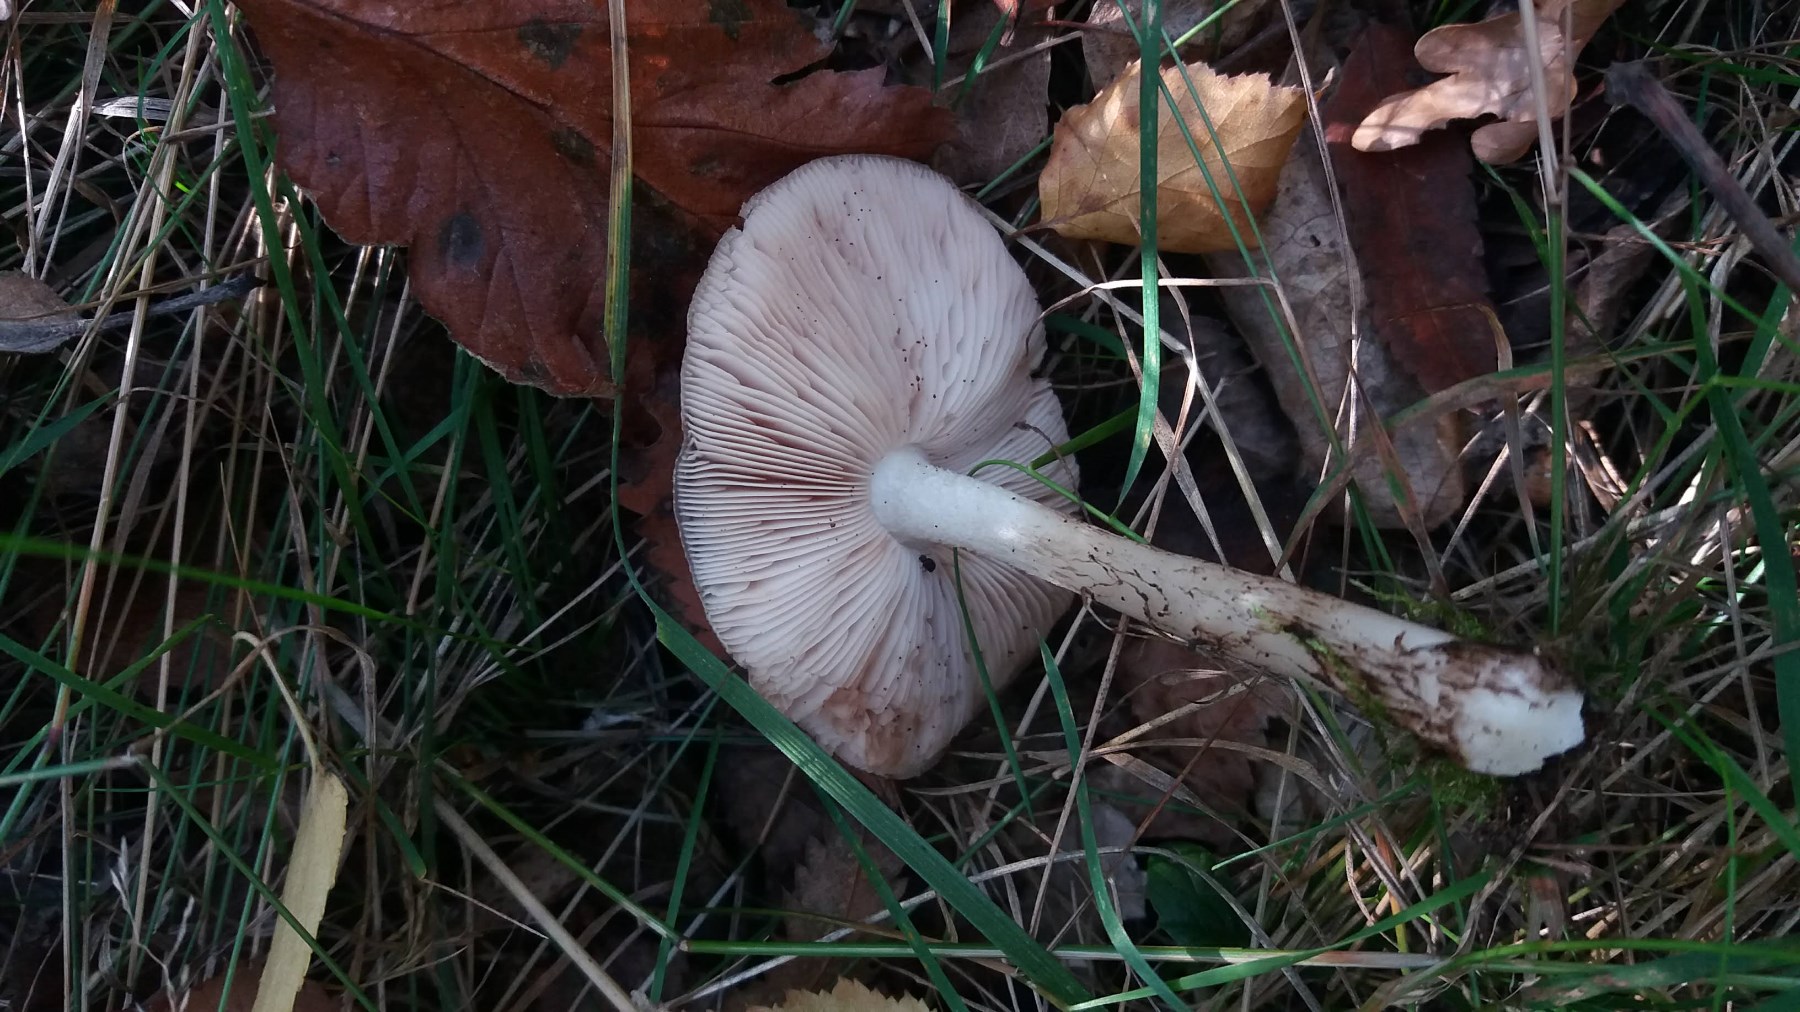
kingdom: Fungi
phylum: Basidiomycota
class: Agaricomycetes
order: Agaricales
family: Pluteaceae
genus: Pluteus
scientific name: Pluteus cervinus
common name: sodfarvet skærmhat
